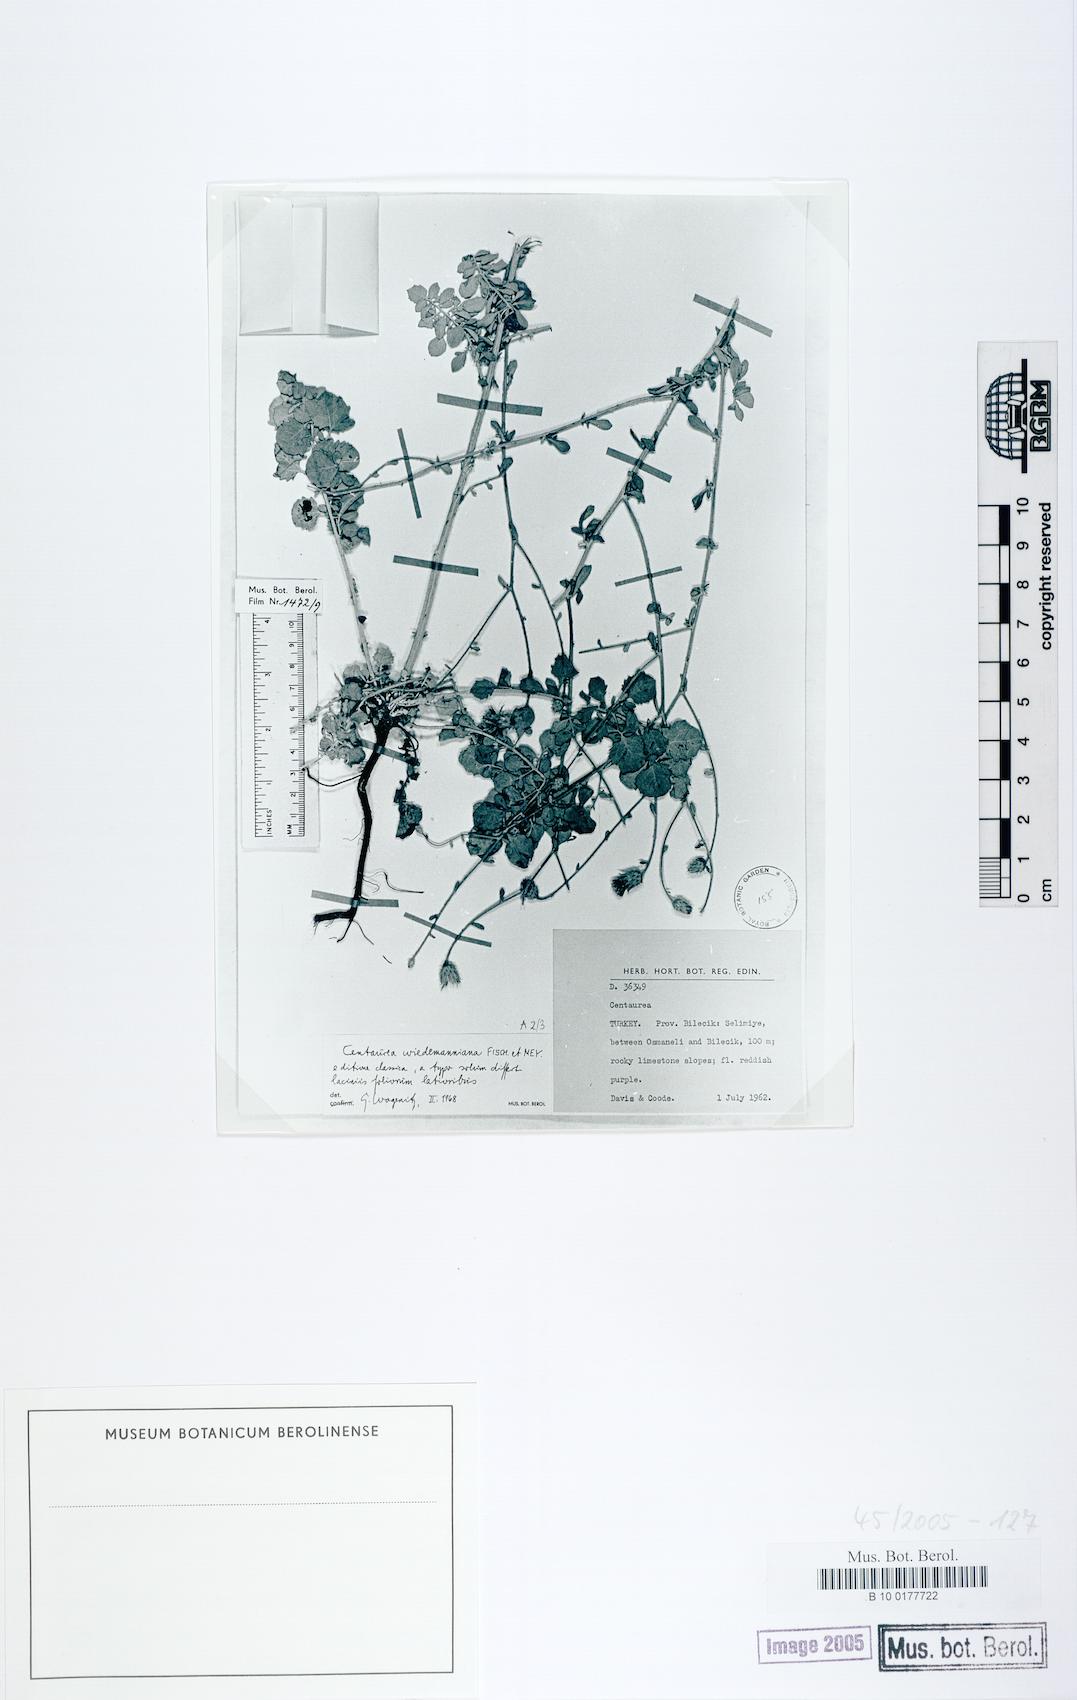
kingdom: Plantae
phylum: Tracheophyta
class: Magnoliopsida
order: Asterales
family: Asteraceae
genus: Centaurea
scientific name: Centaurea wiedemanniana
